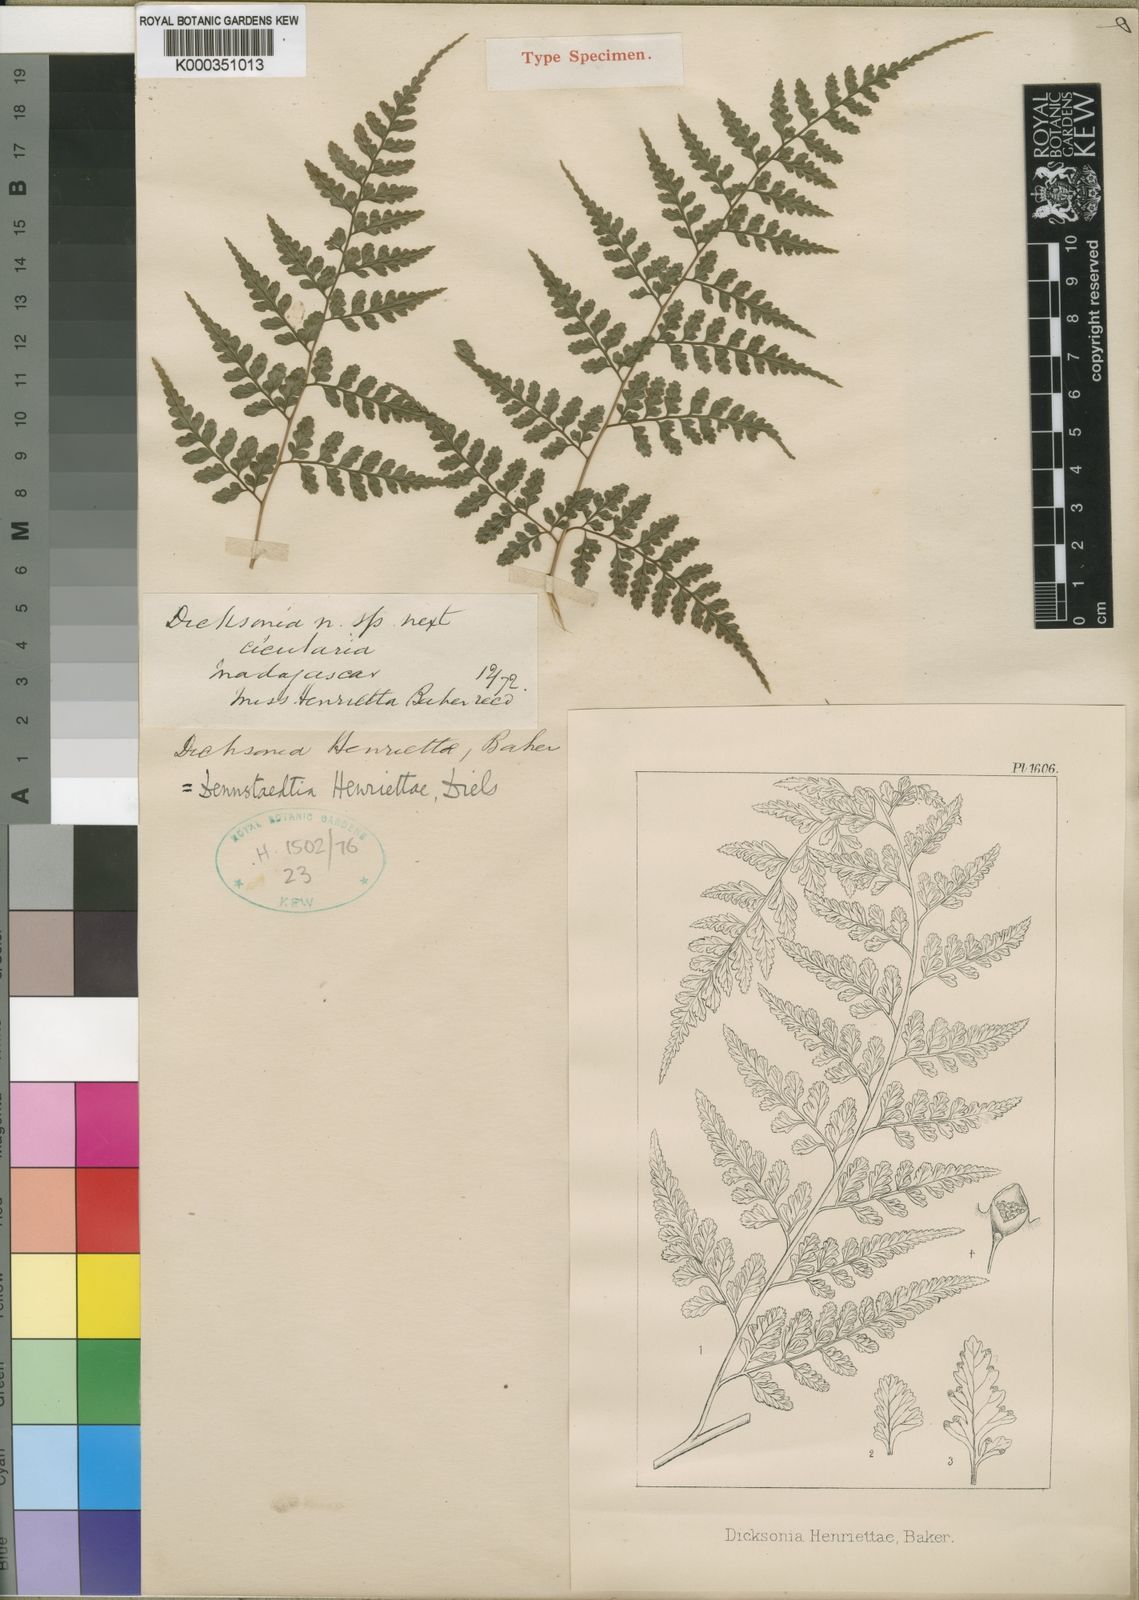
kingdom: Plantae
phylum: Tracheophyta
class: Polypodiopsida
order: Polypodiales
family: Saccolomataceae
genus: Orthiopteris
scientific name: Orthiopteris henriettae
